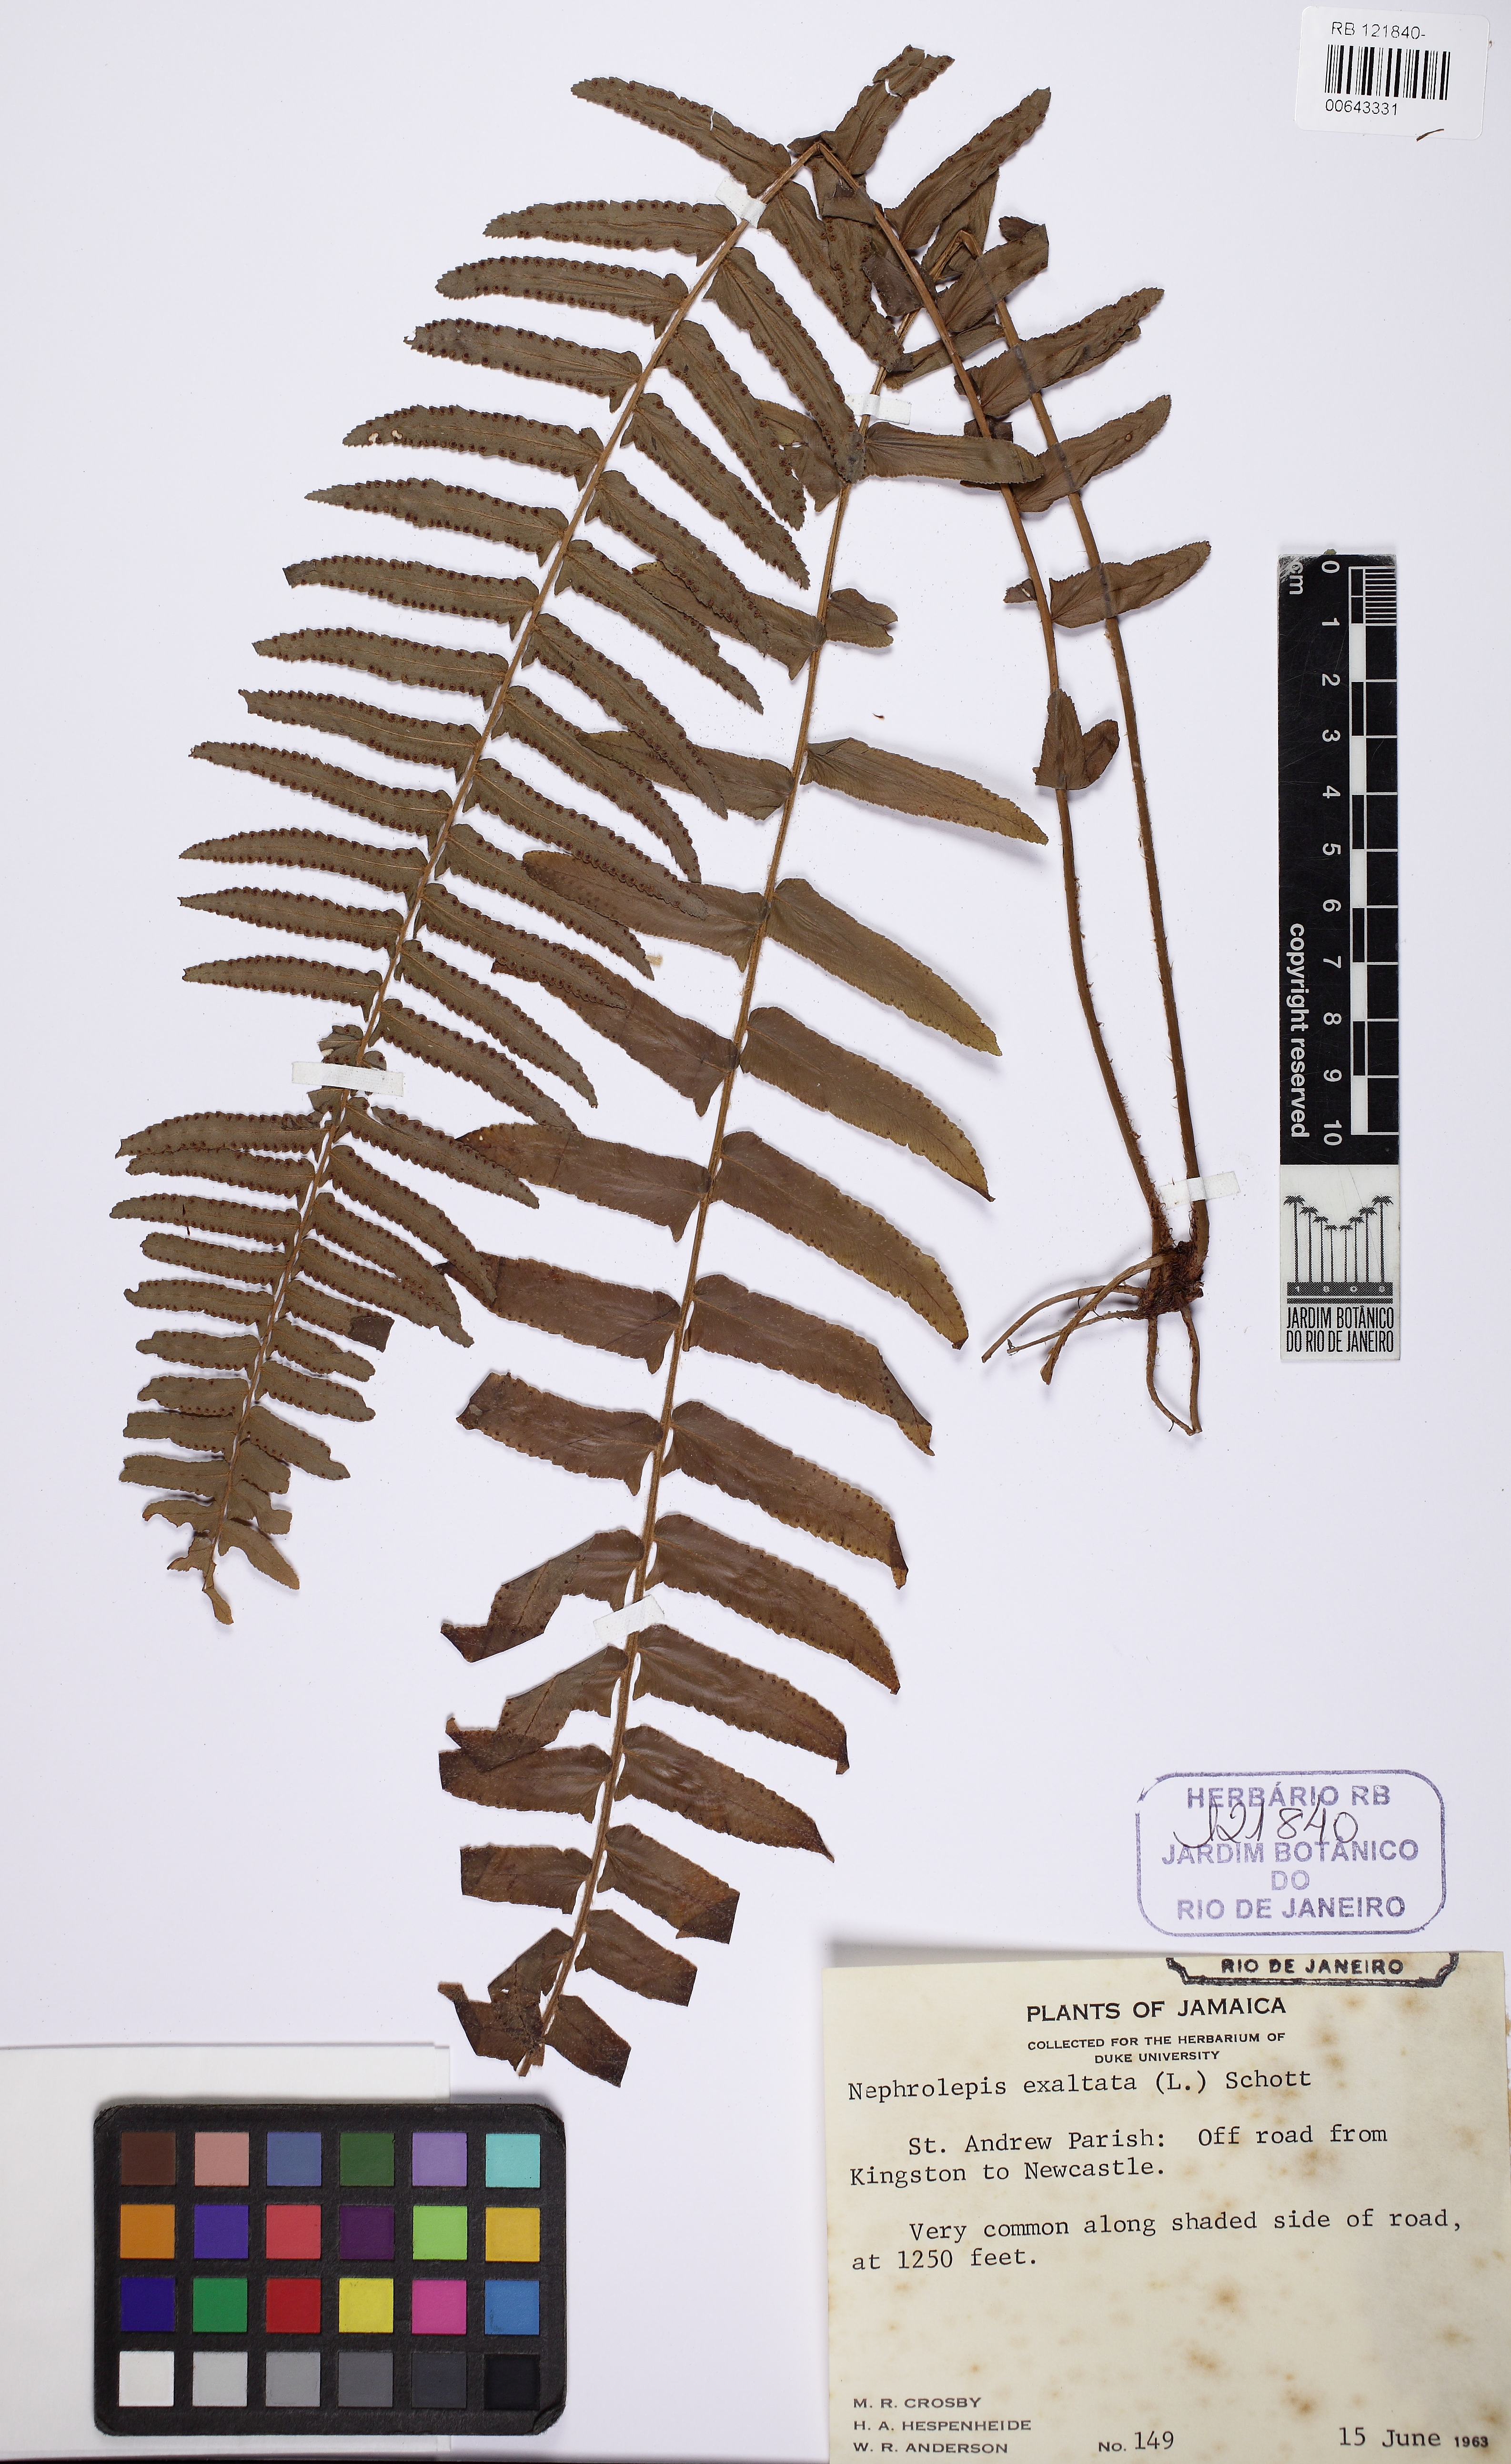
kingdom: Plantae
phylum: Tracheophyta
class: Polypodiopsida
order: Polypodiales
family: Nephrolepidaceae
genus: Nephrolepis
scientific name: Nephrolepis exaltata
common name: Sword fern
